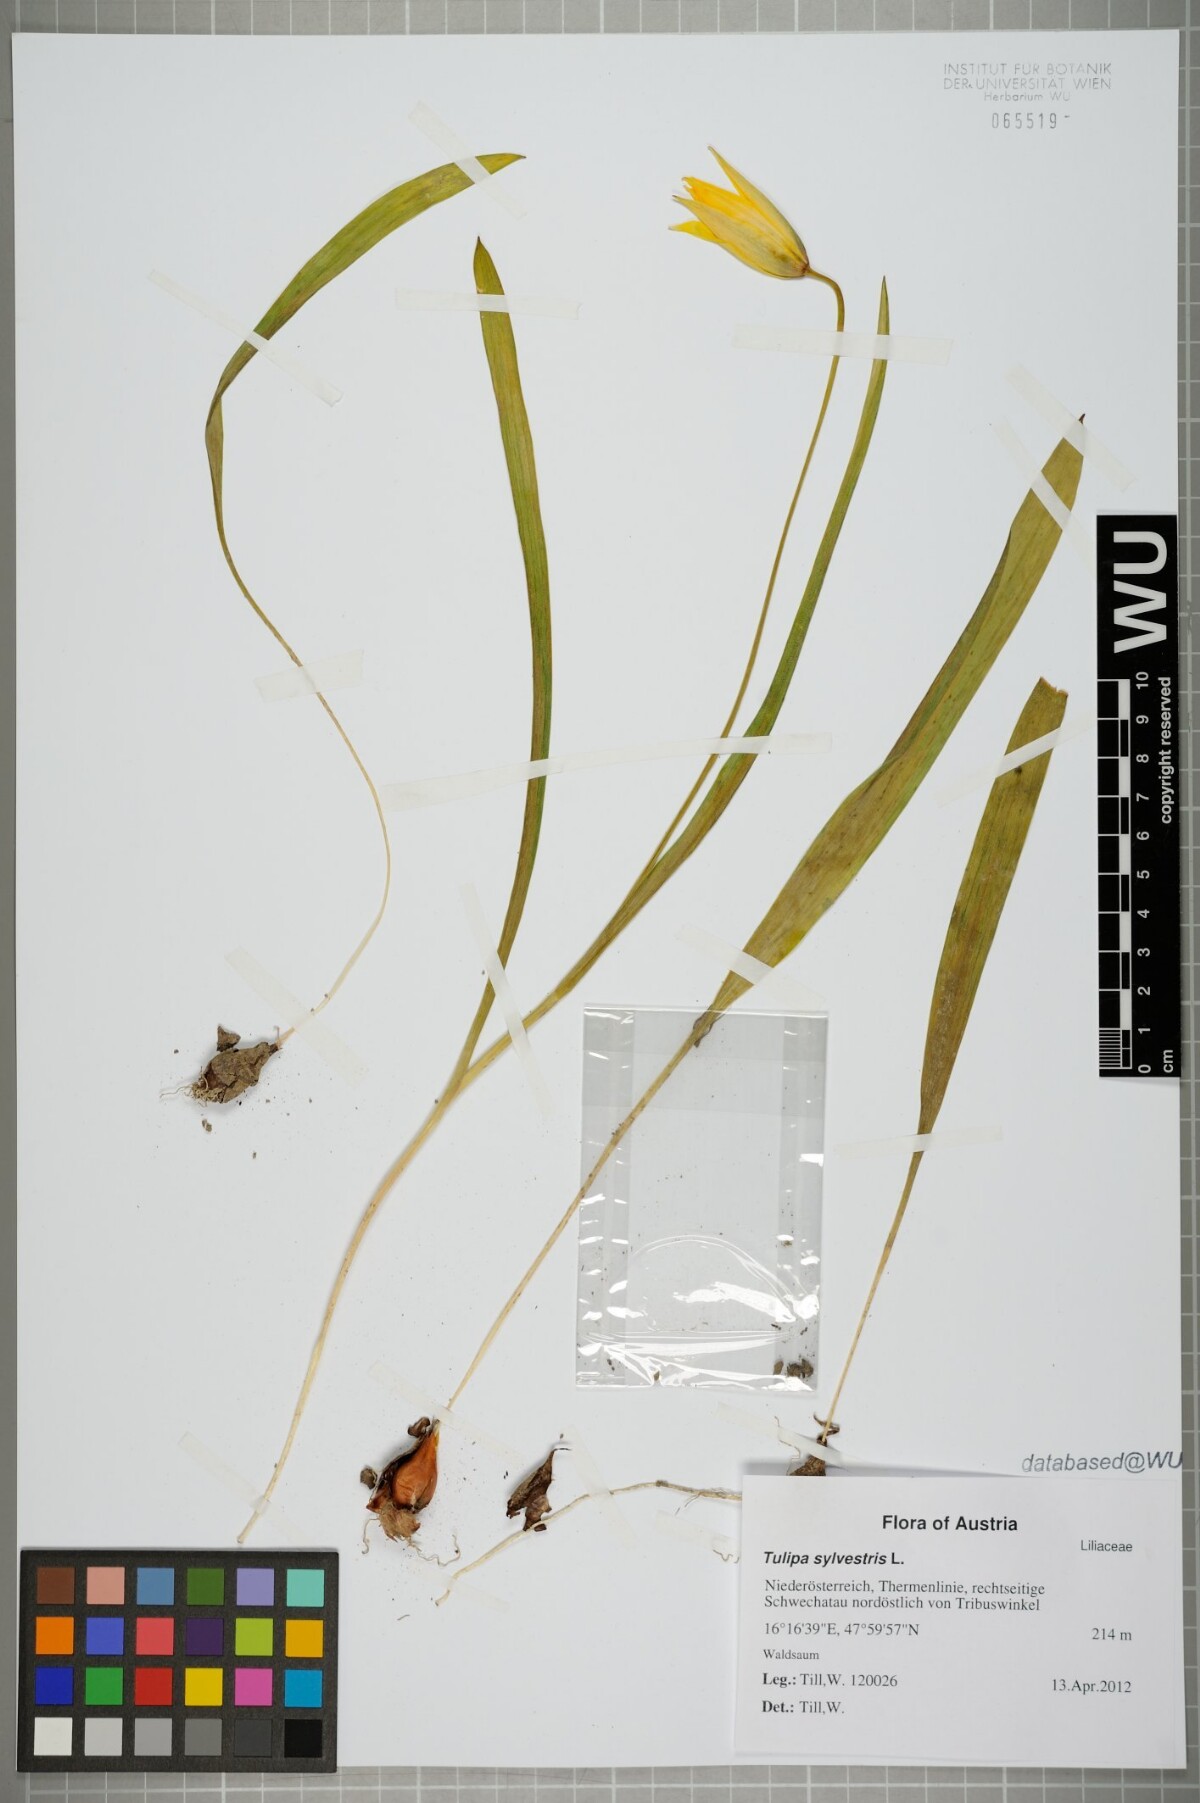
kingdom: Plantae
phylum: Tracheophyta
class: Liliopsida
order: Liliales
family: Liliaceae
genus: Tulipa
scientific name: Tulipa sylvestris
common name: Wild tulip
